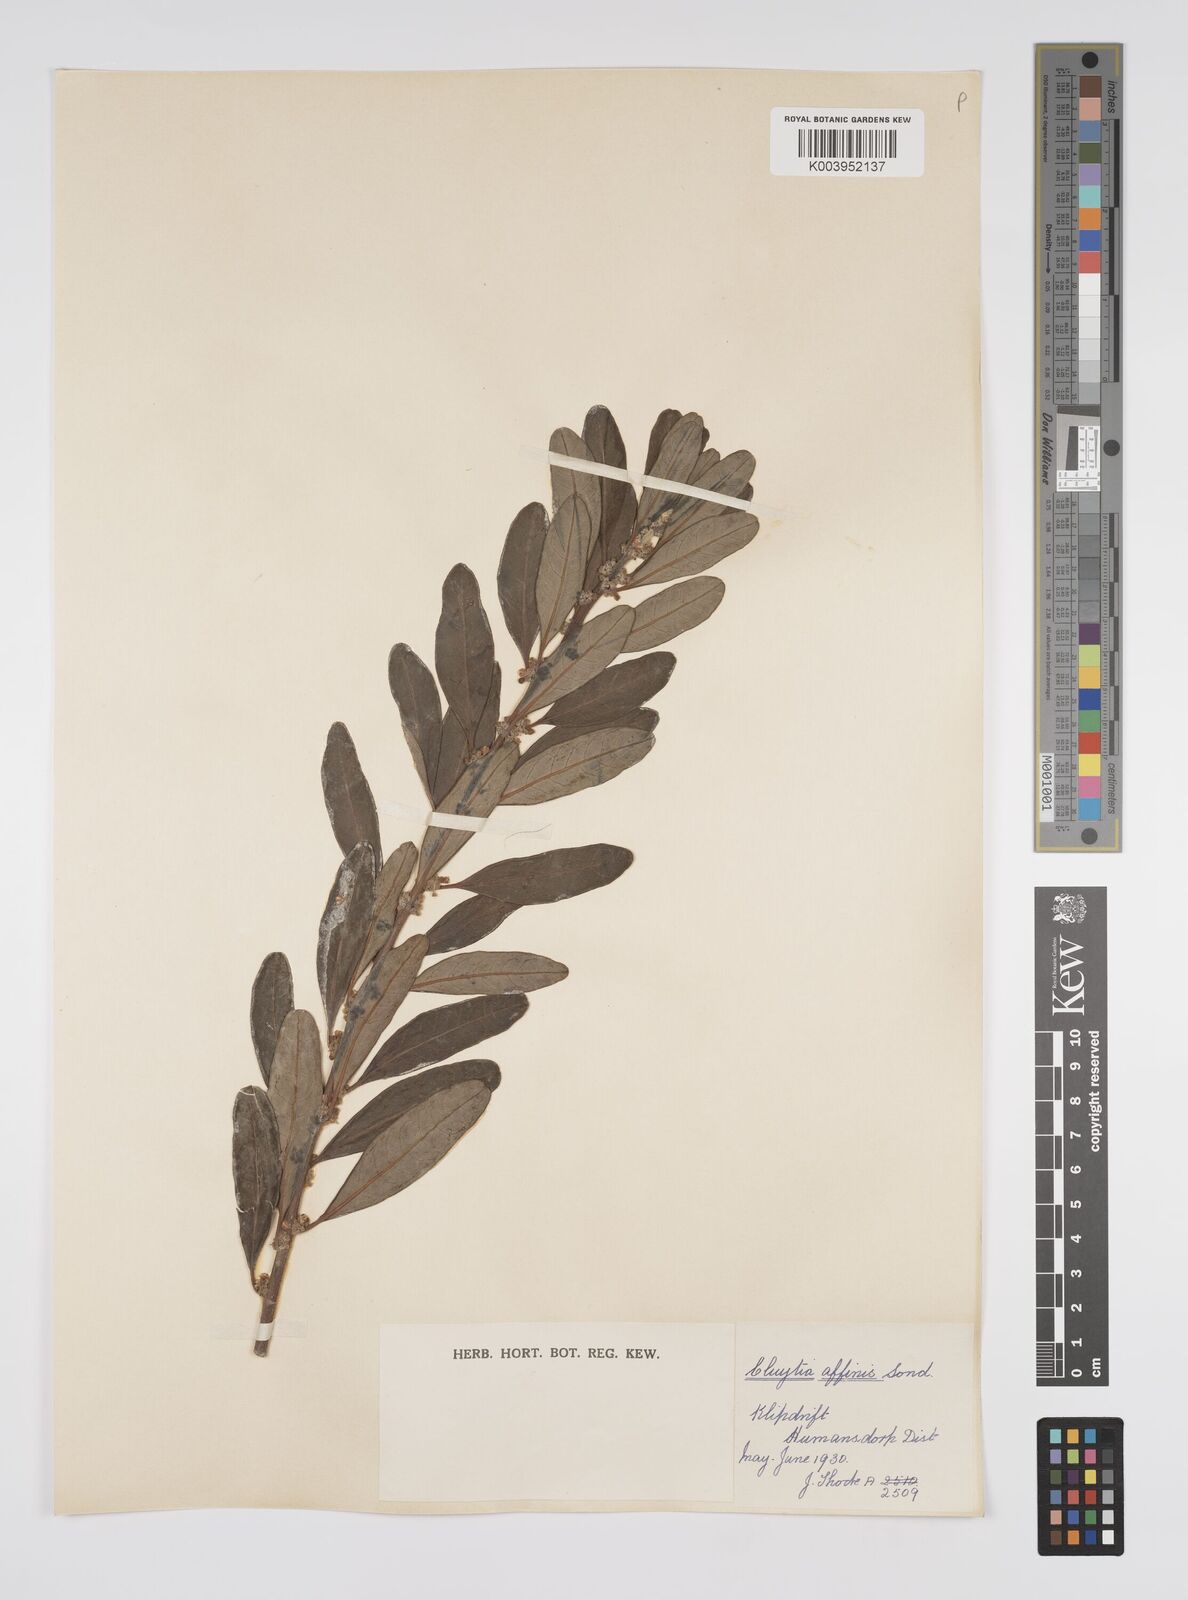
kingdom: Plantae
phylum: Tracheophyta
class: Magnoliopsida
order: Malpighiales
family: Peraceae
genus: Clutia
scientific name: Clutia affinis
